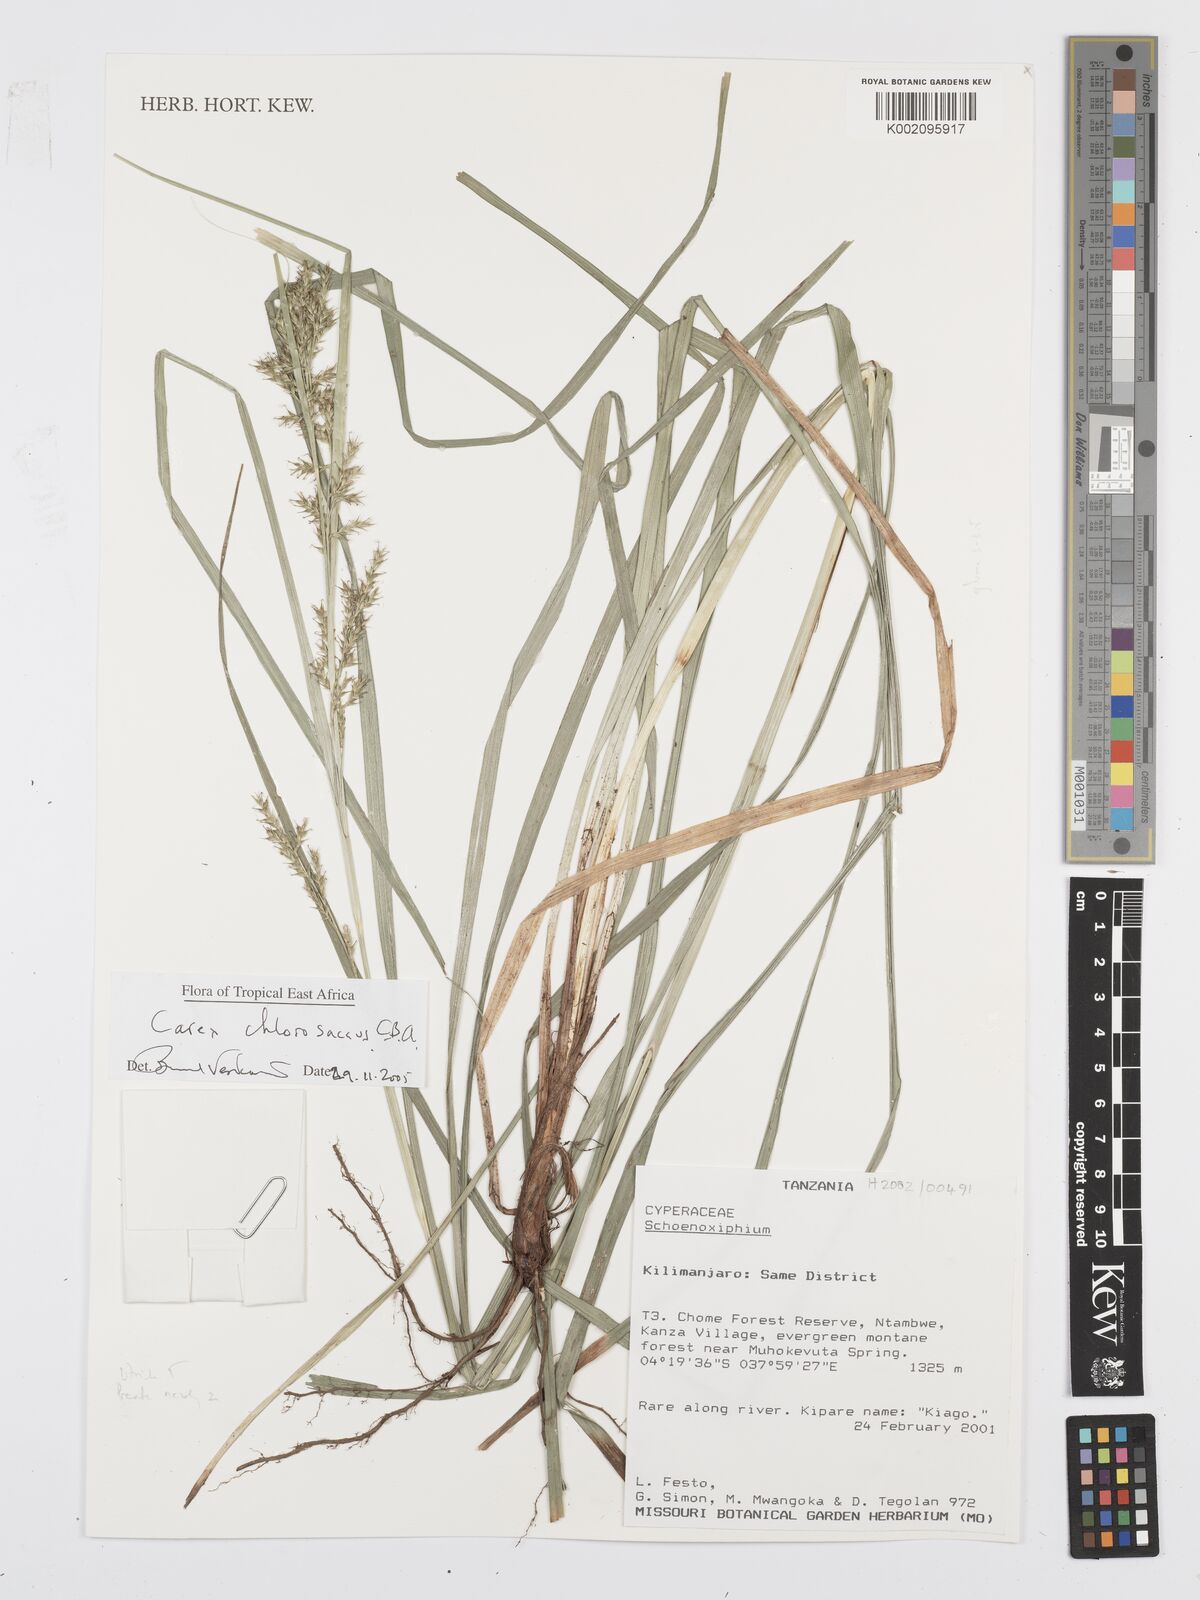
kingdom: Plantae
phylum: Tracheophyta
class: Liliopsida
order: Poales
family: Cyperaceae
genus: Carex
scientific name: Carex chlorosaccus
